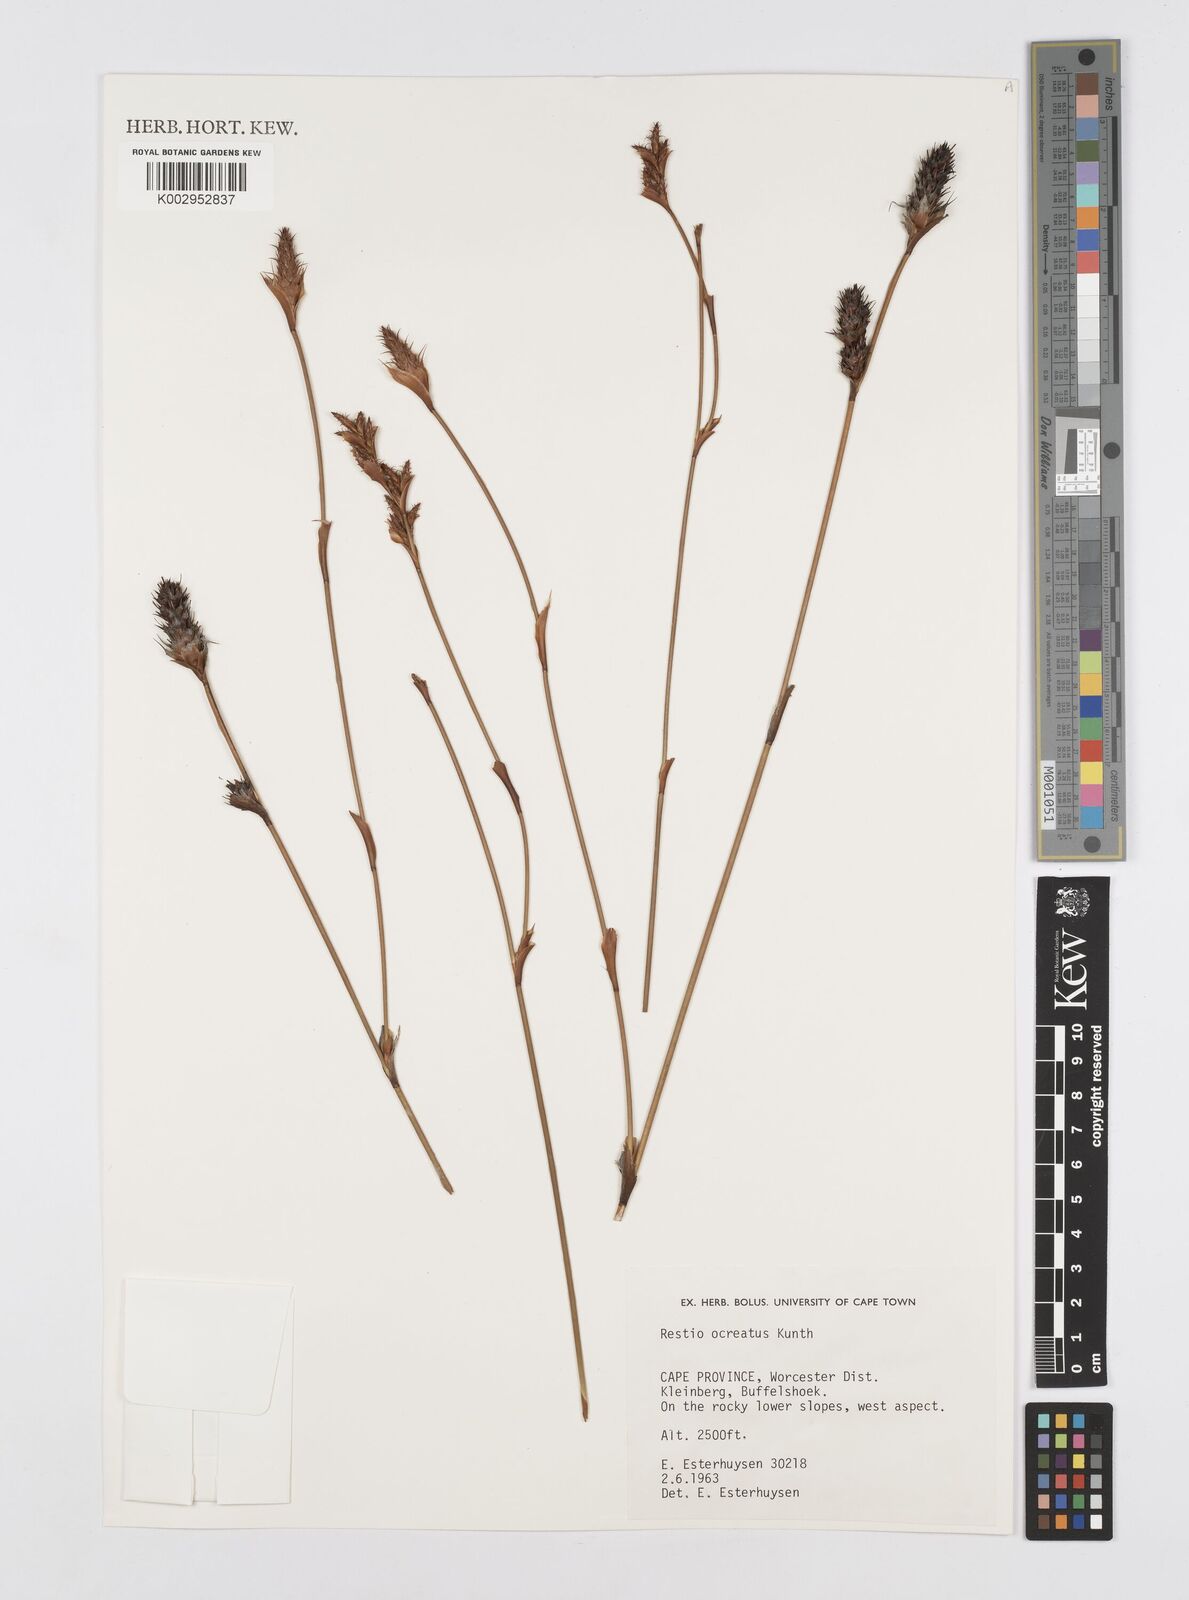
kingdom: Plantae
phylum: Tracheophyta
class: Liliopsida
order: Poales
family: Restionaceae
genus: Restio
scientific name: Restio ocreatus
